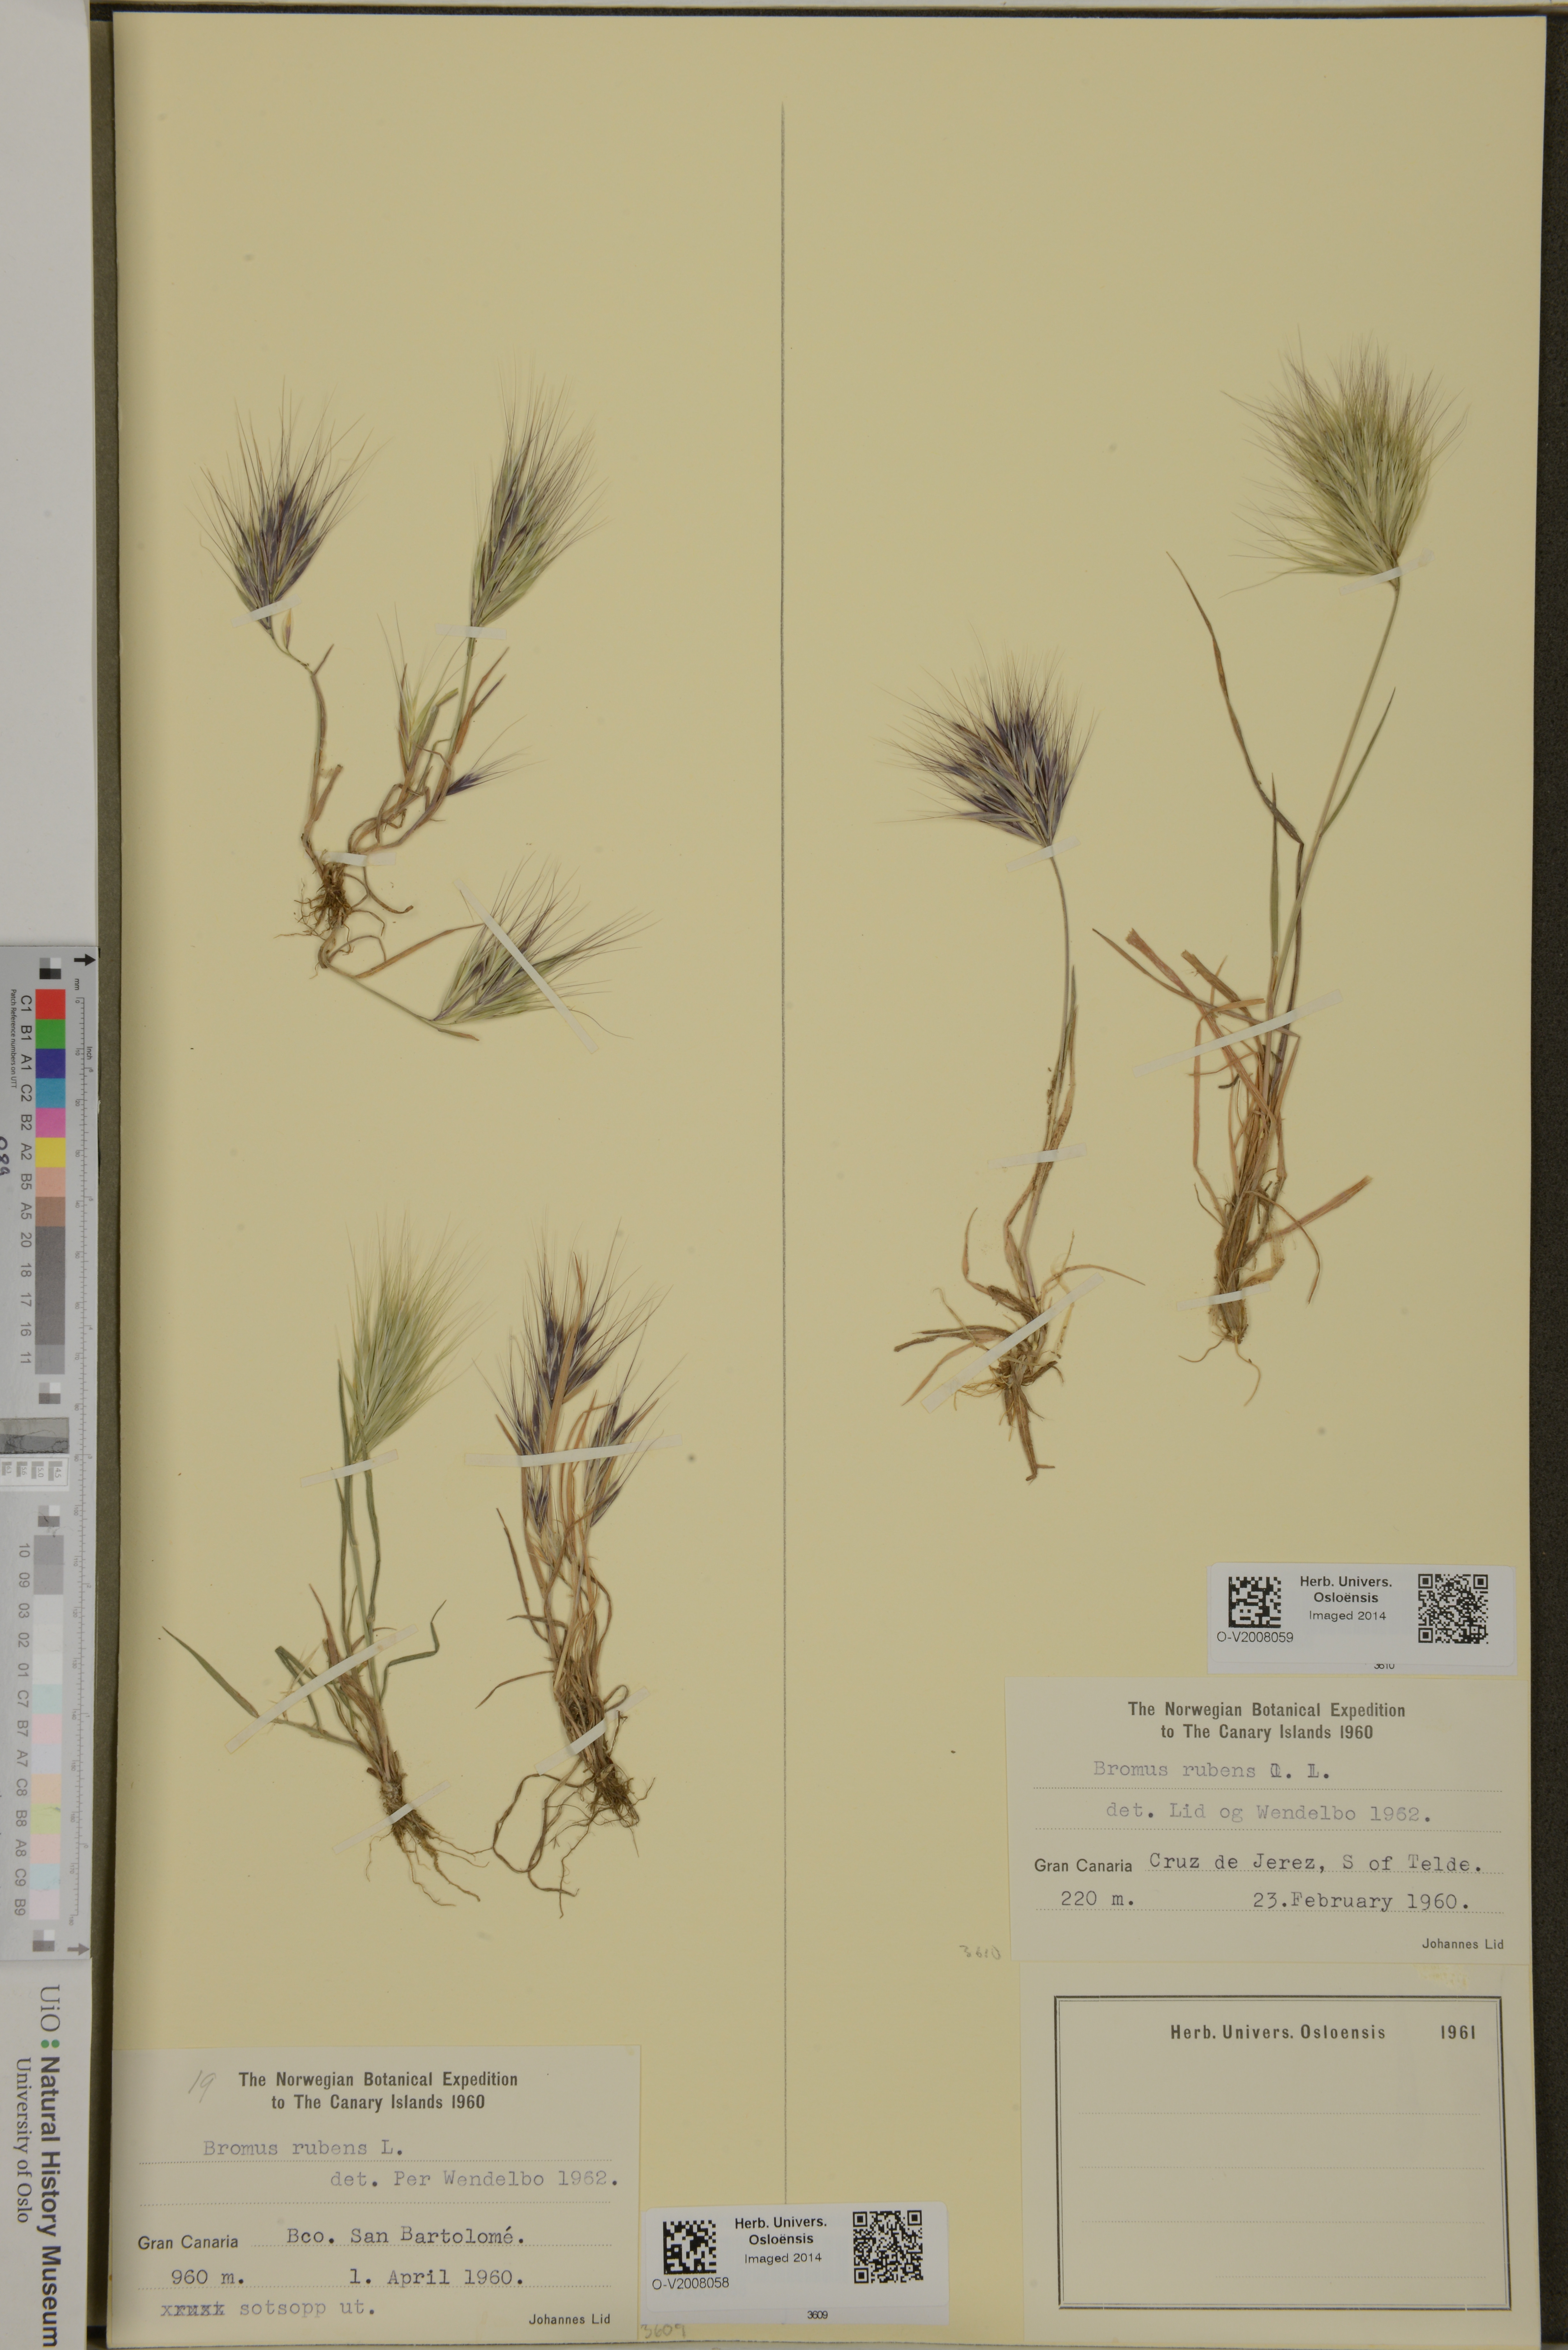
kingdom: Plantae
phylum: Tracheophyta
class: Liliopsida
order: Poales
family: Poaceae
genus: Bromus
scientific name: Bromus rubens
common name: Red brome
